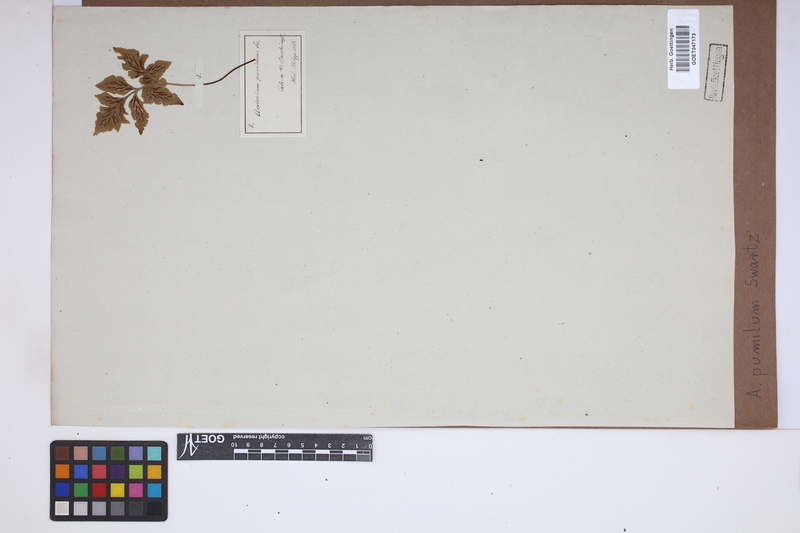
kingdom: Plantae
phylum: Tracheophyta
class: Polypodiopsida
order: Polypodiales
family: Aspleniaceae
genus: Asplenium
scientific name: Asplenium pumilum
